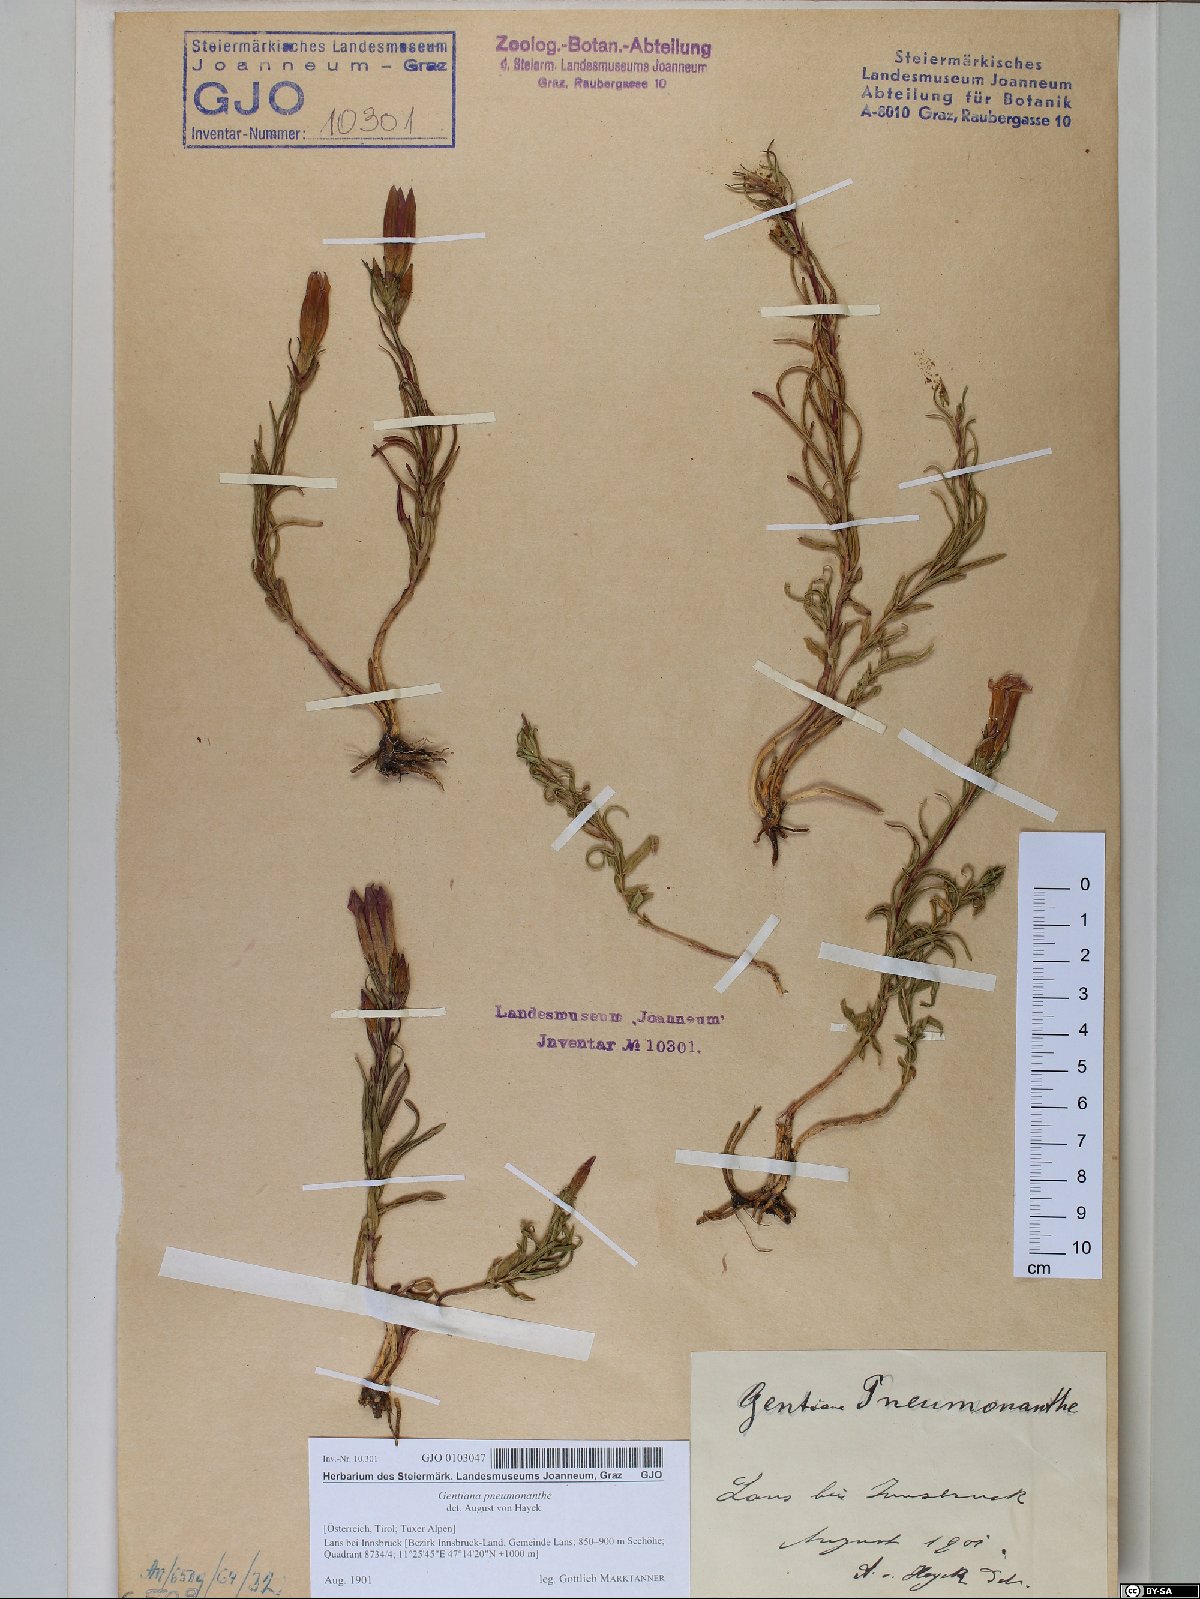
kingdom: Plantae
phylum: Tracheophyta
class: Magnoliopsida
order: Gentianales
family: Gentianaceae
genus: Gentiana
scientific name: Gentiana pneumonanthe
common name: Marsh gentian
